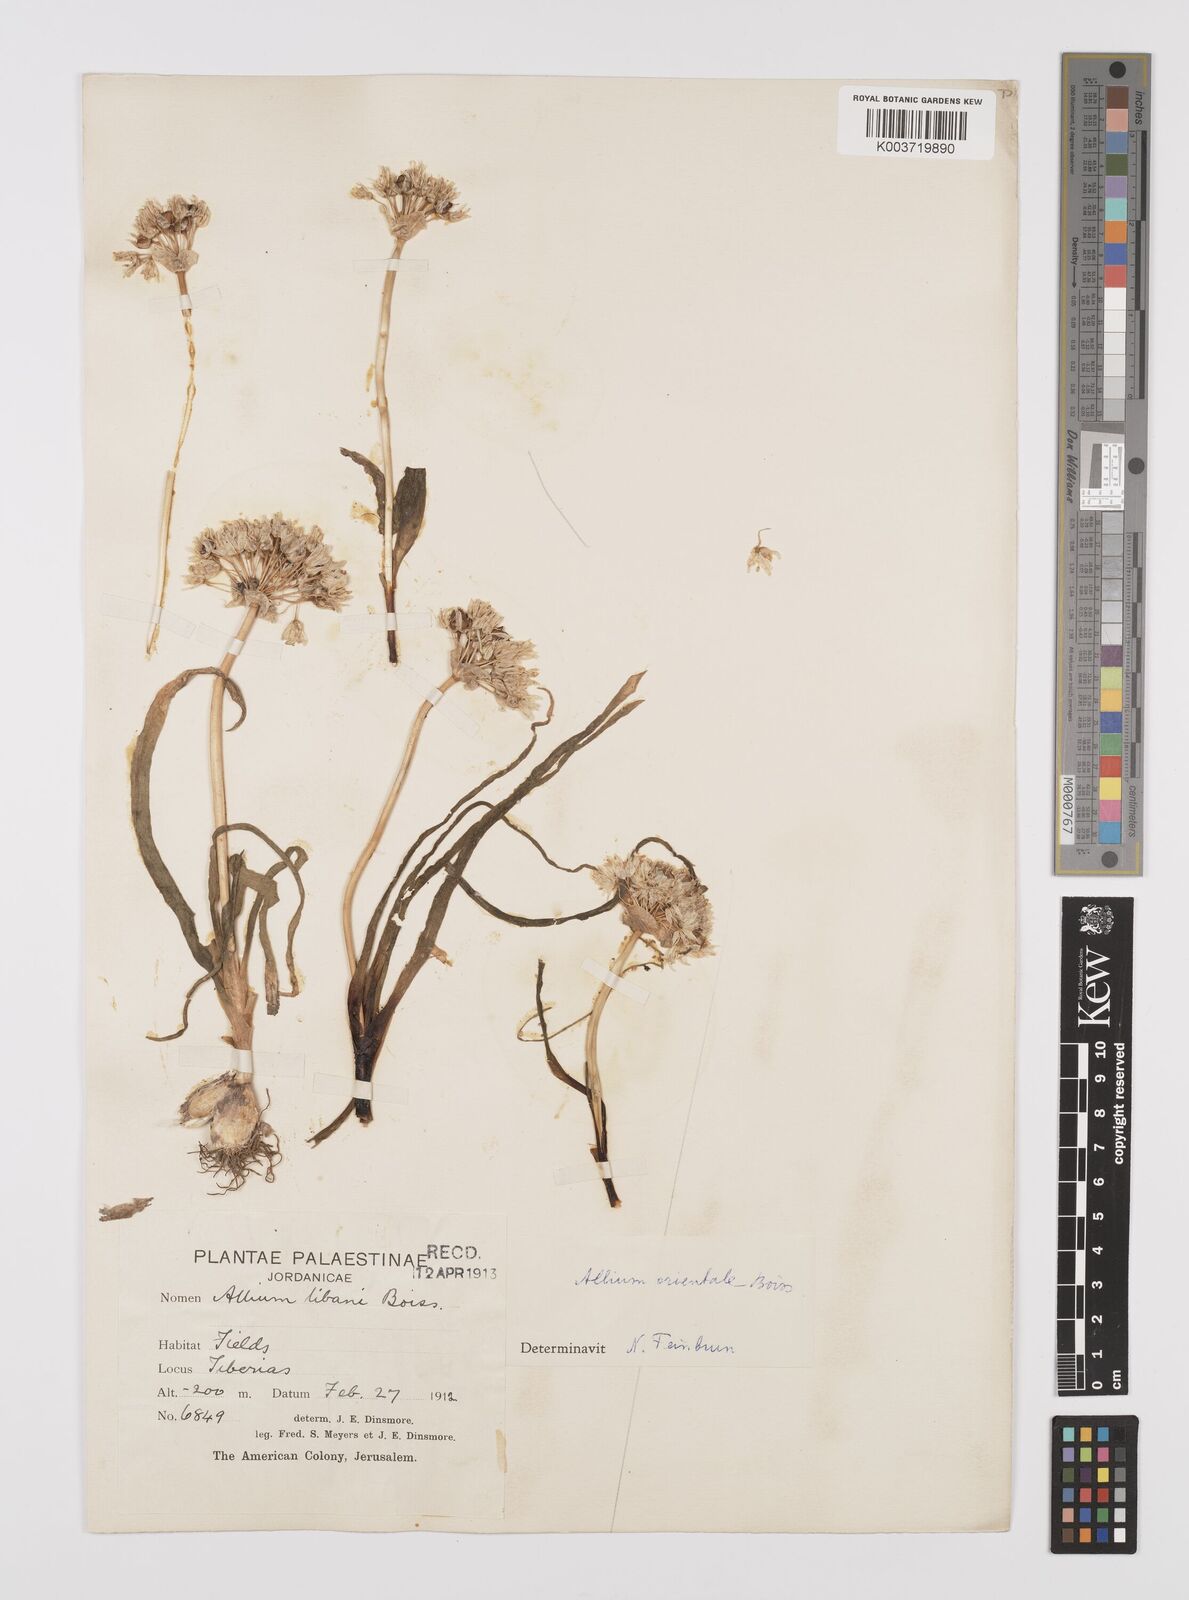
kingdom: Plantae
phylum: Tracheophyta
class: Liliopsida
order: Asparagales
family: Amaryllidaceae
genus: Allium
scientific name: Allium orientale
